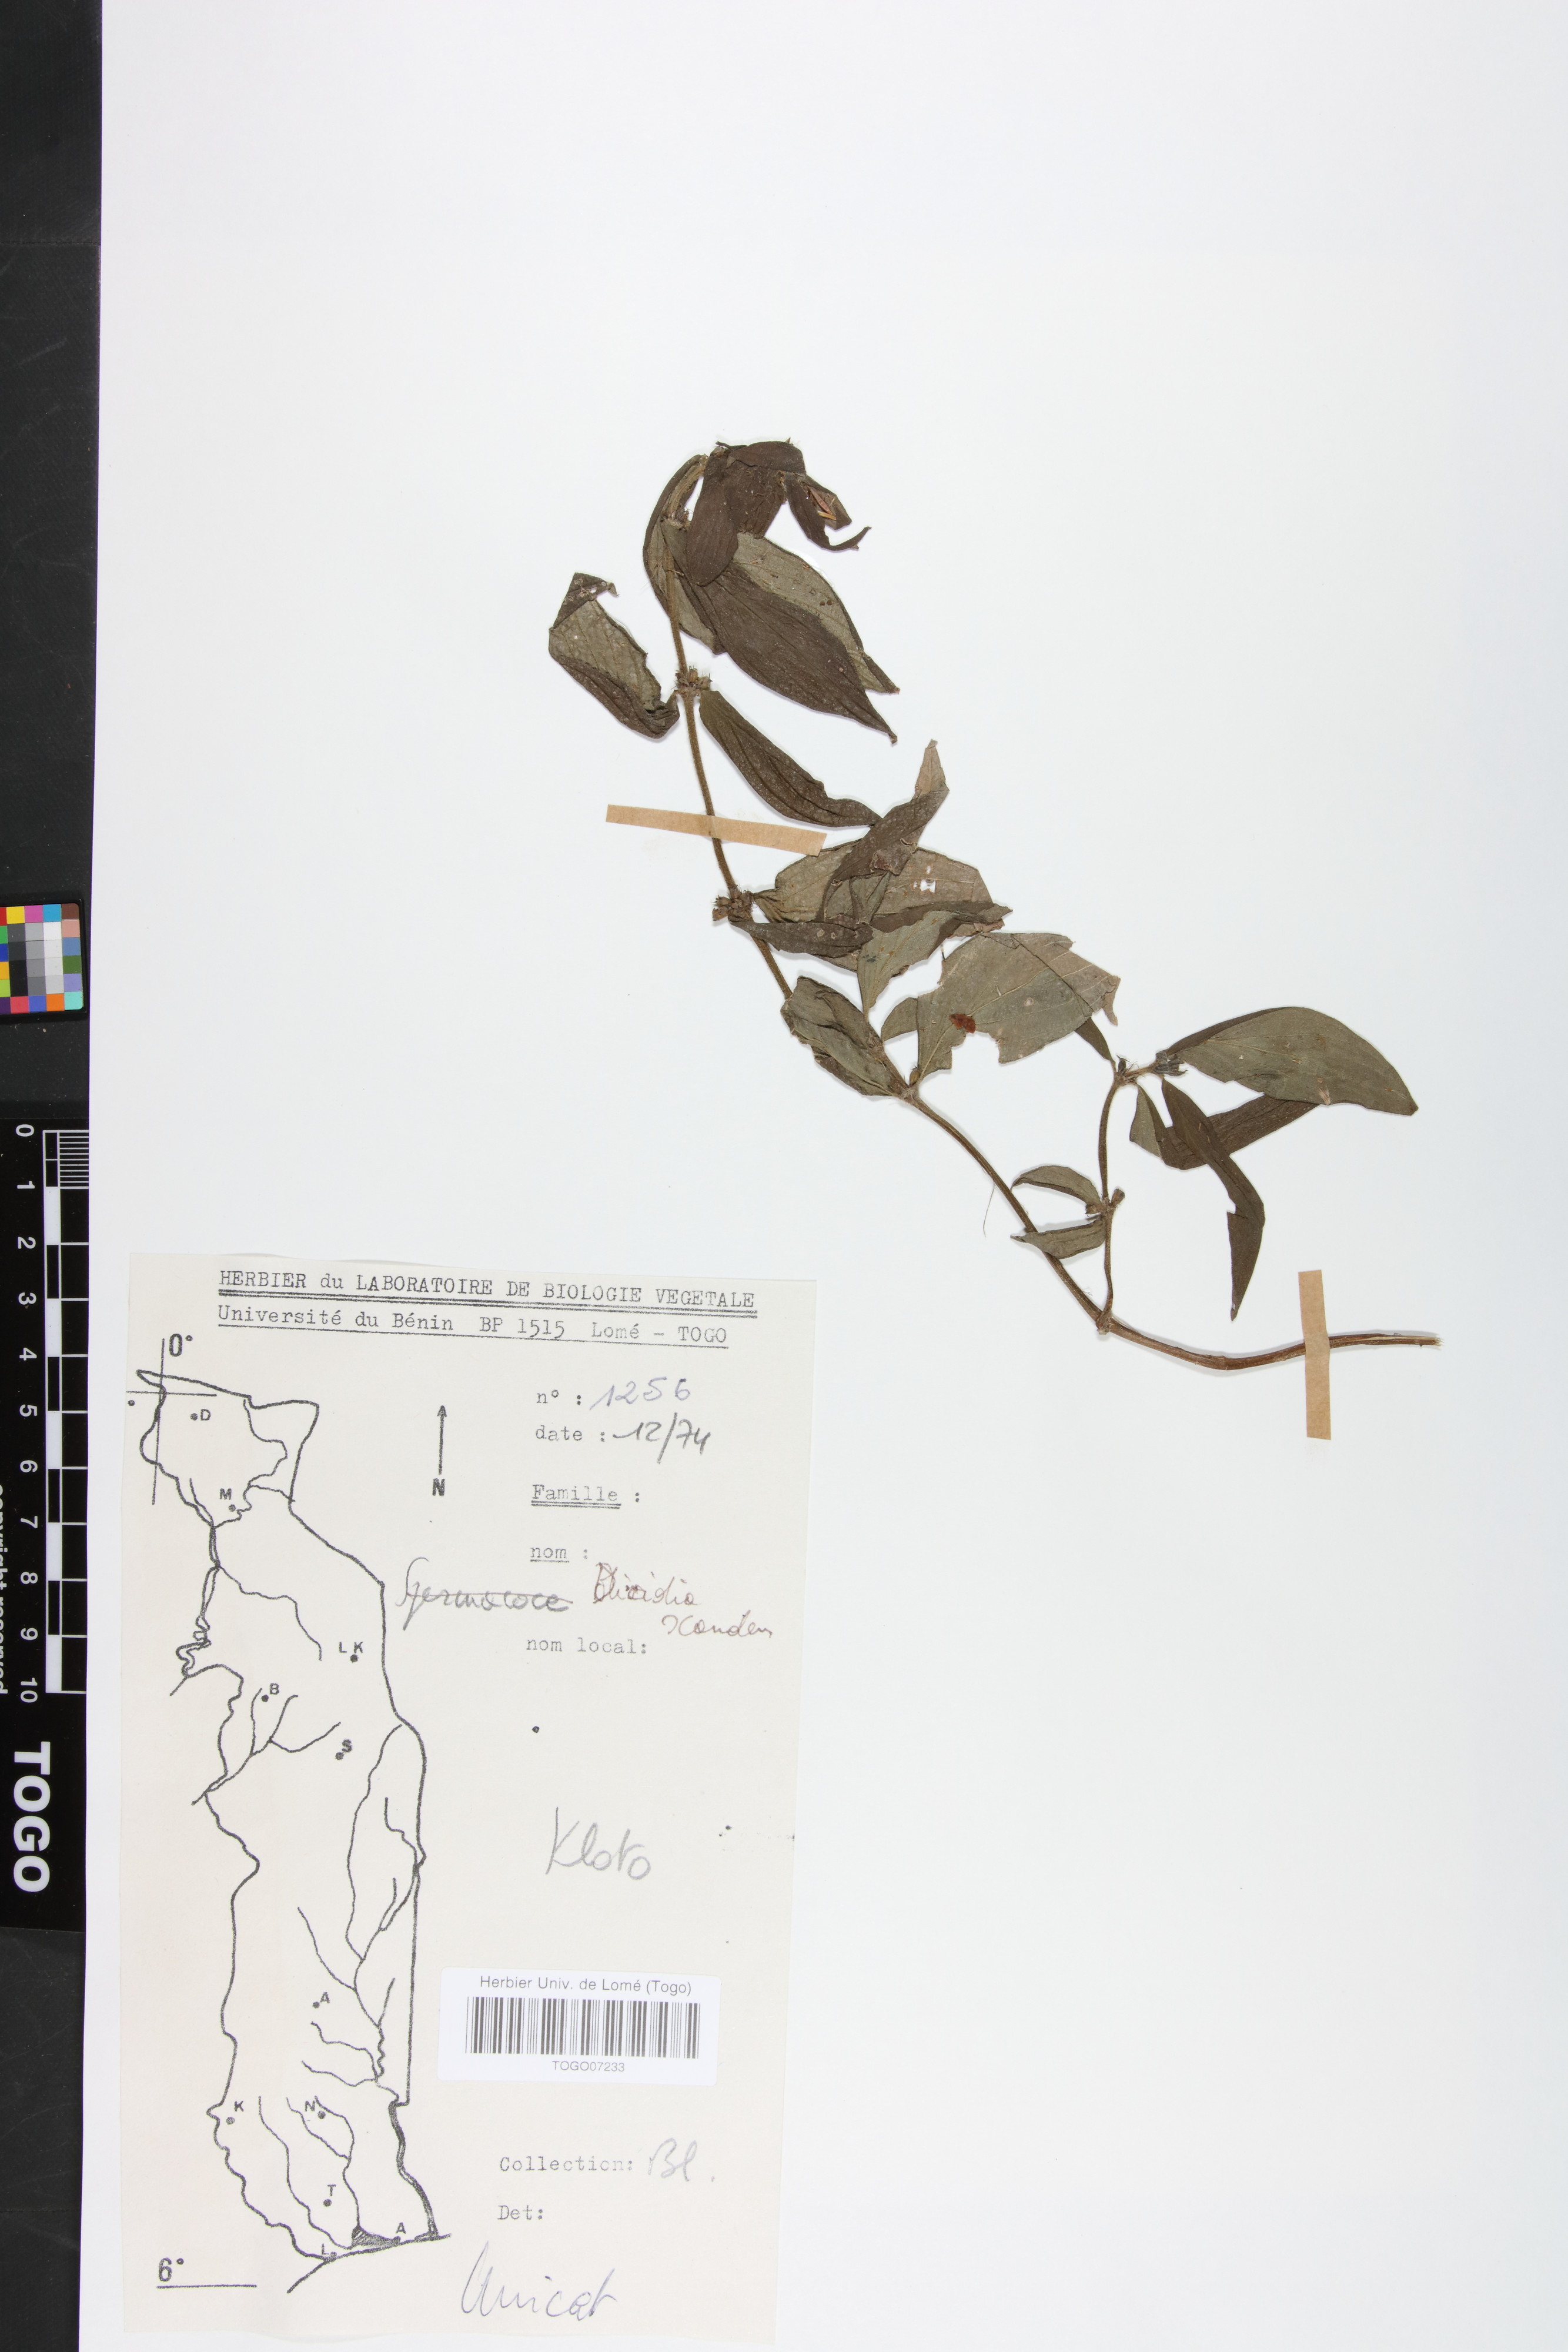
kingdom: Plantae
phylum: Tracheophyta
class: Magnoliopsida
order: Gentianales
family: Rubiaceae
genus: Hexasepalum
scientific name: Hexasepalum scandens
